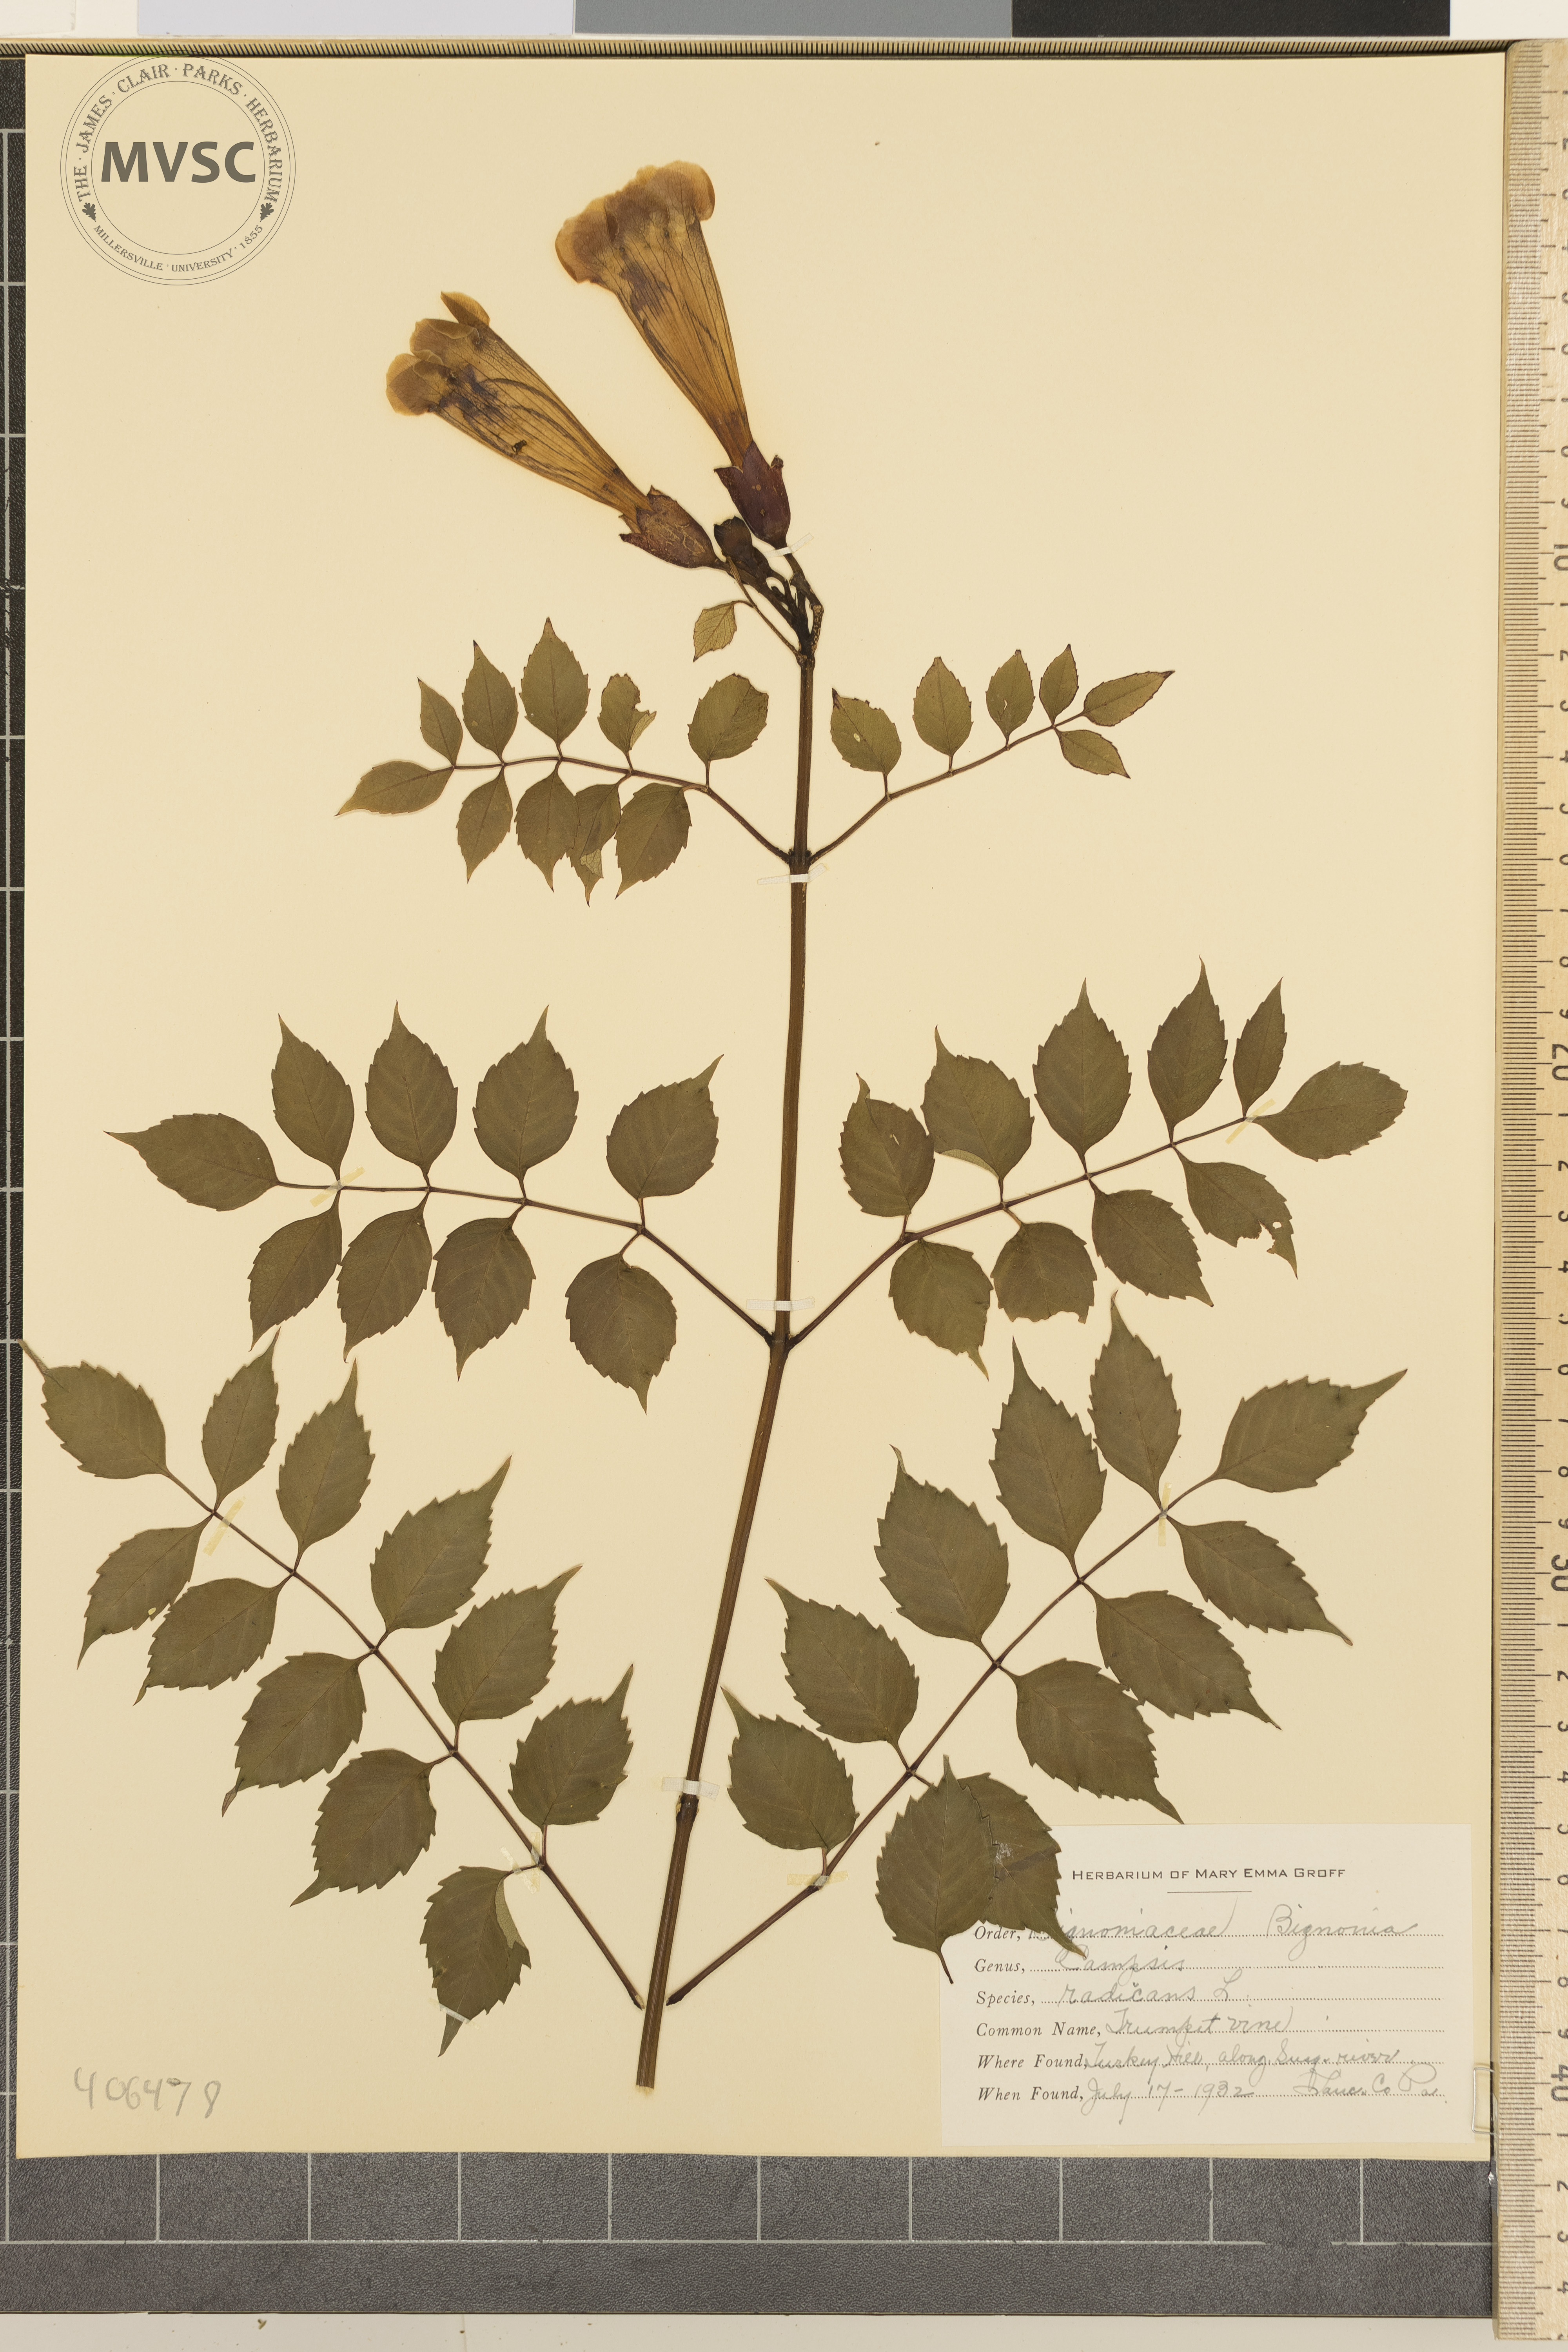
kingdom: Plantae
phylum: Tracheophyta
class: Magnoliopsida
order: Lamiales
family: Bignoniaceae
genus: Campsis
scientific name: Campsis radicans
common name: Trumpet vine
